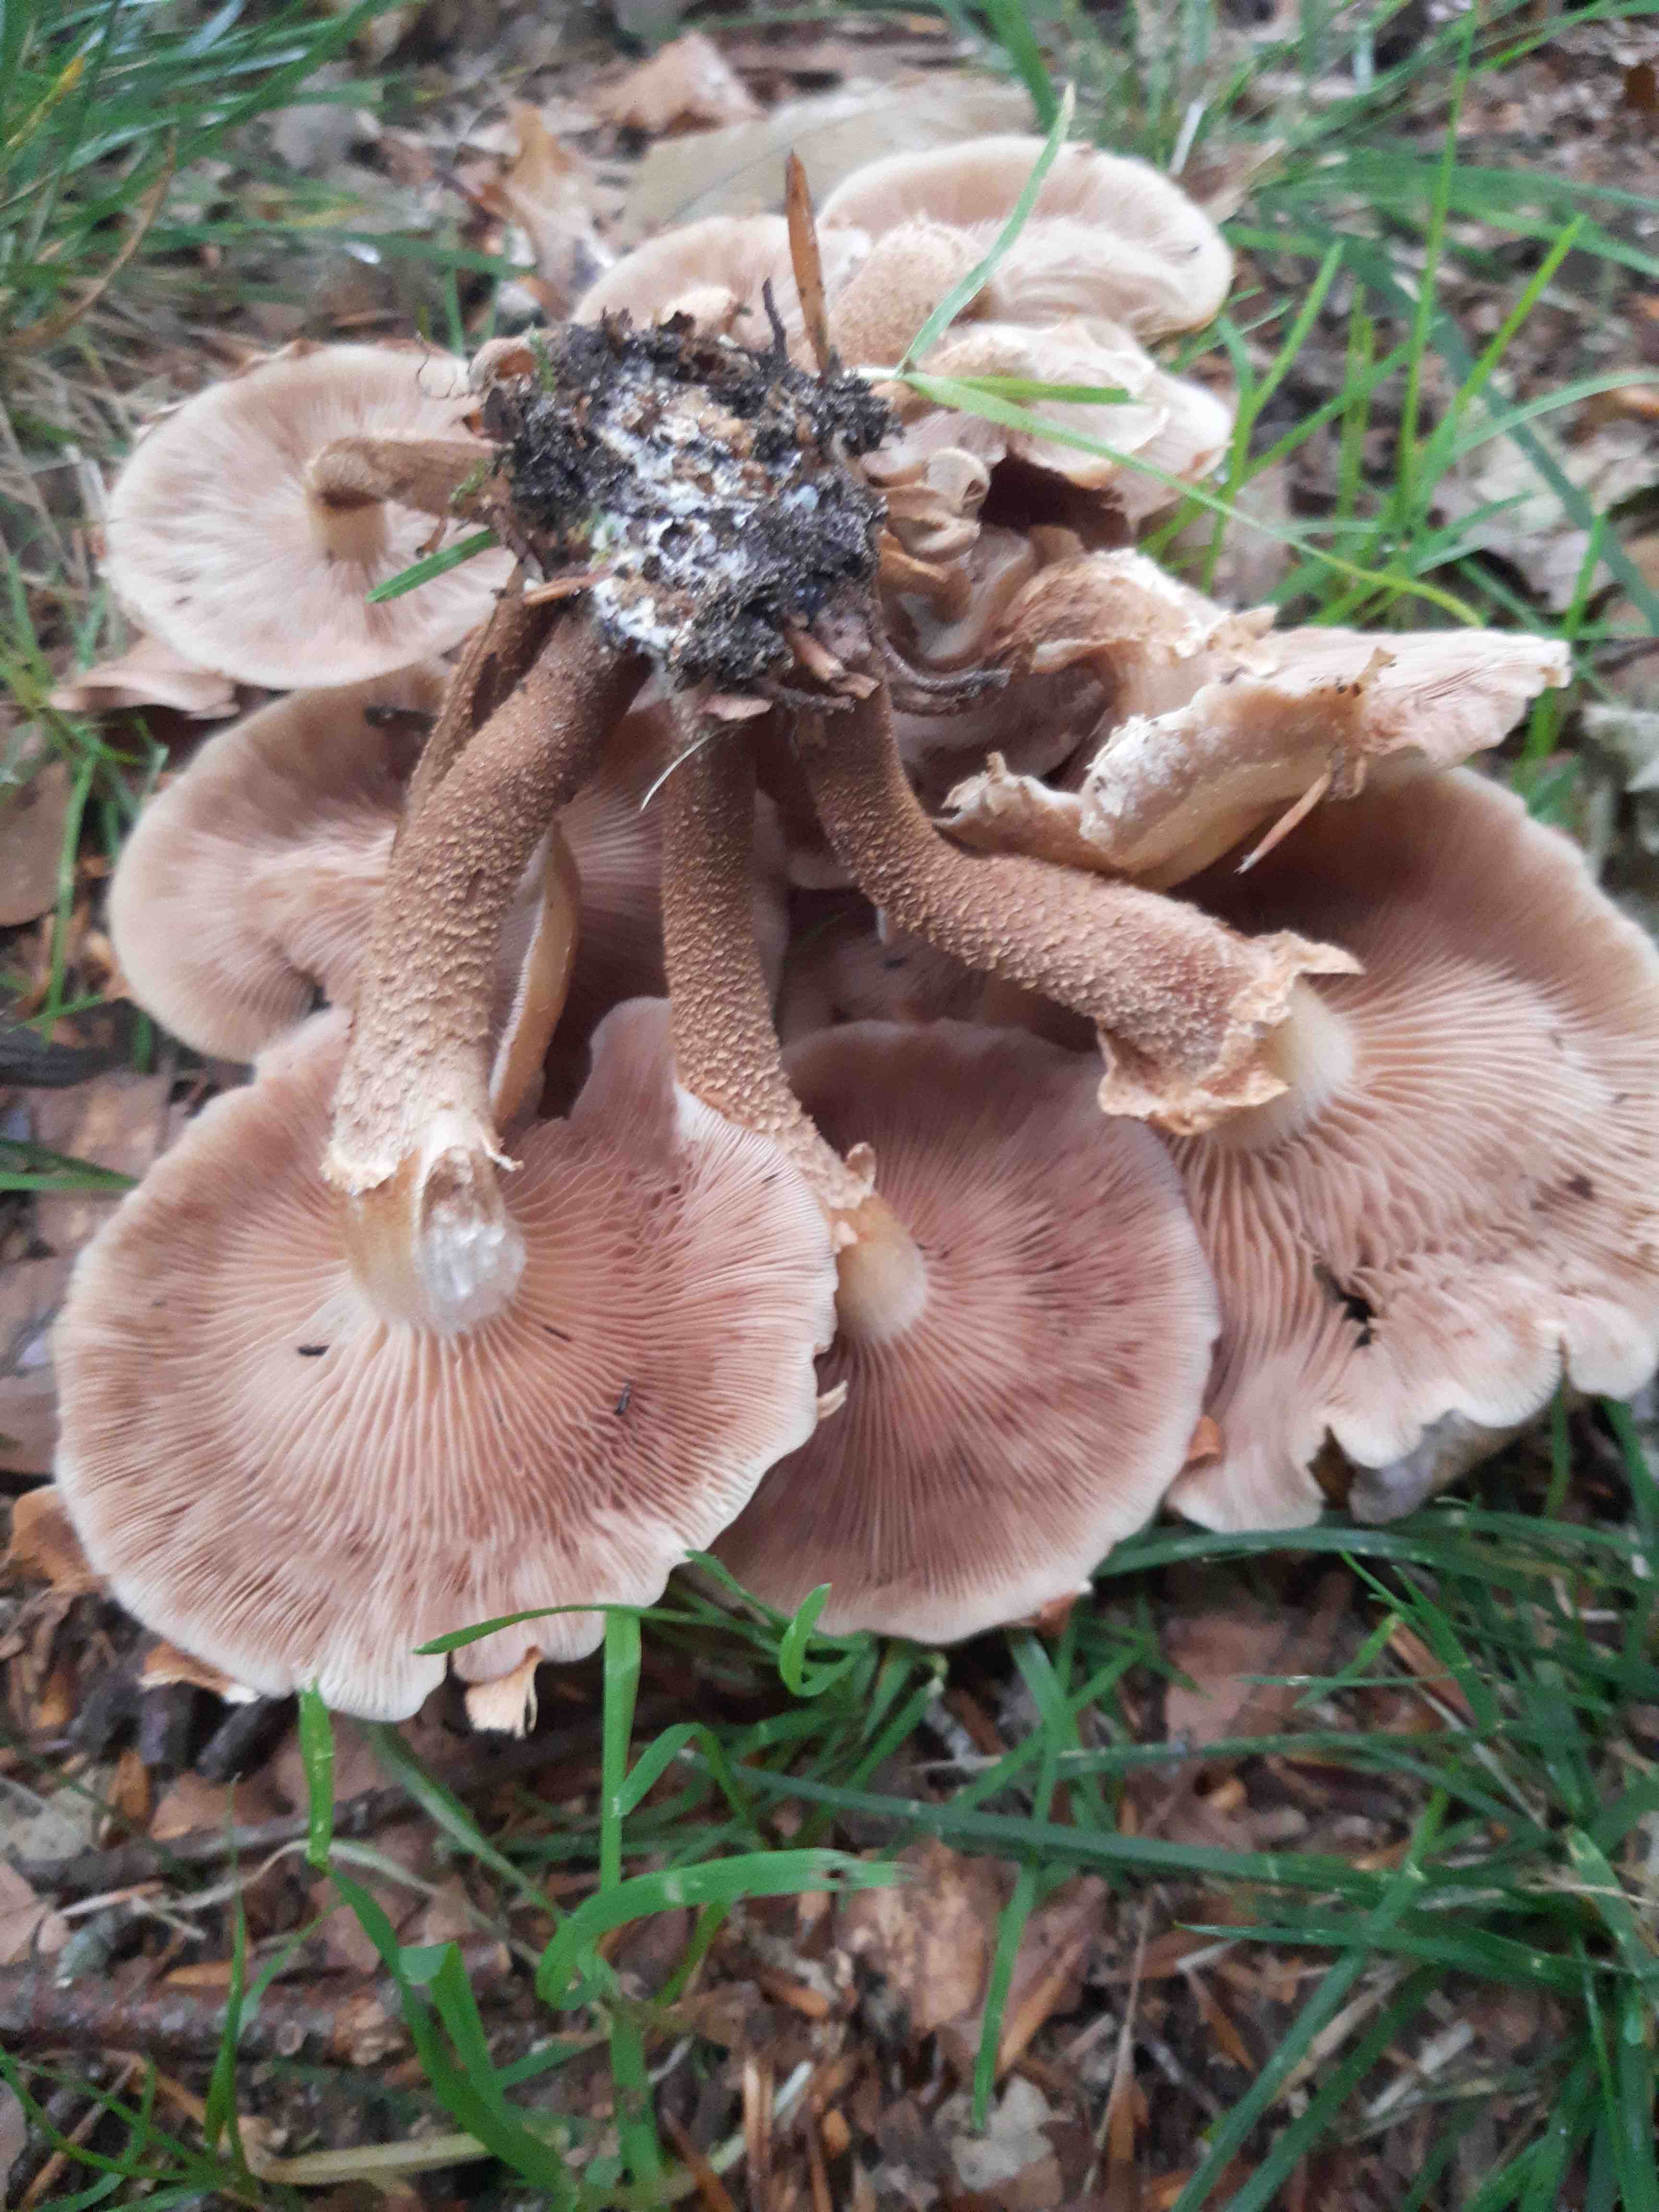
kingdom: Fungi
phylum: Basidiomycota
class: Agaricomycetes
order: Agaricales
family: Strophariaceae
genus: Kuehneromyces
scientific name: Kuehneromyces mutabilis
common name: foranderlig skælhat
